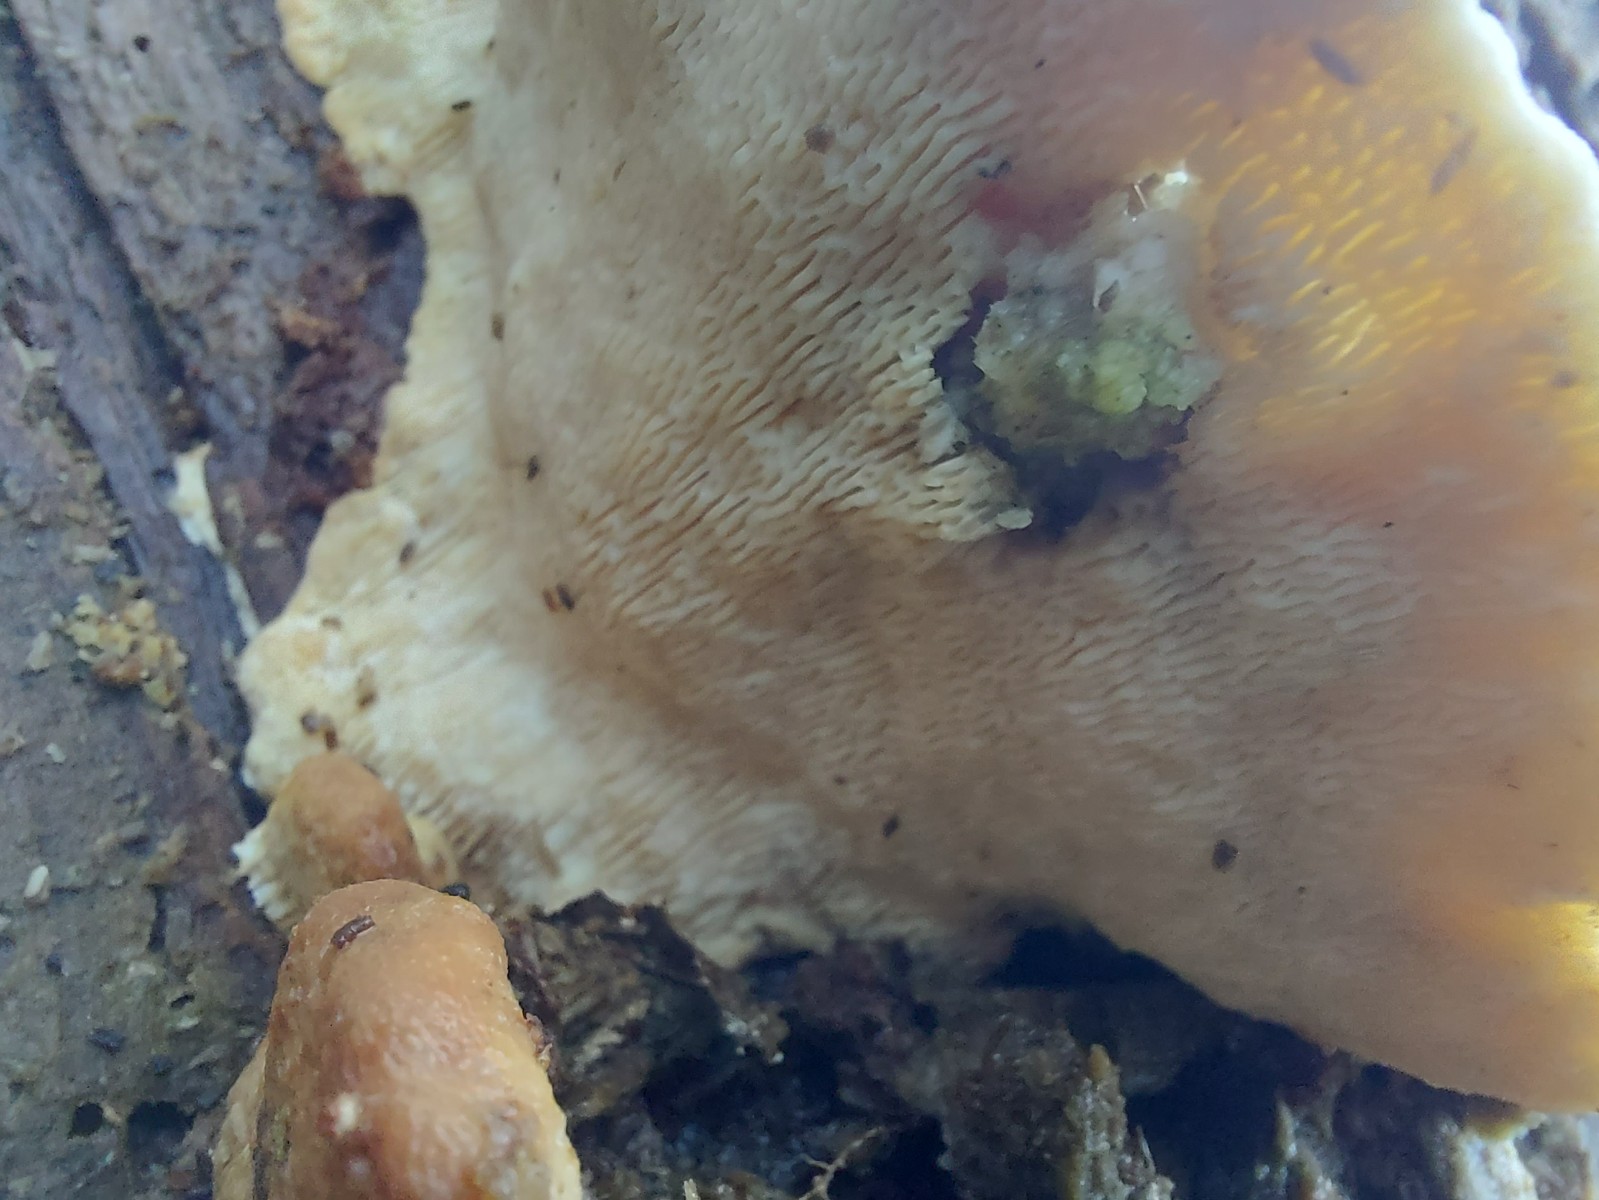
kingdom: Fungi
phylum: Basidiomycota
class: Agaricomycetes
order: Polyporales
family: Polyporaceae
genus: Trametes
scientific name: Trametes hirsuta
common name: håret læderporesvamp
